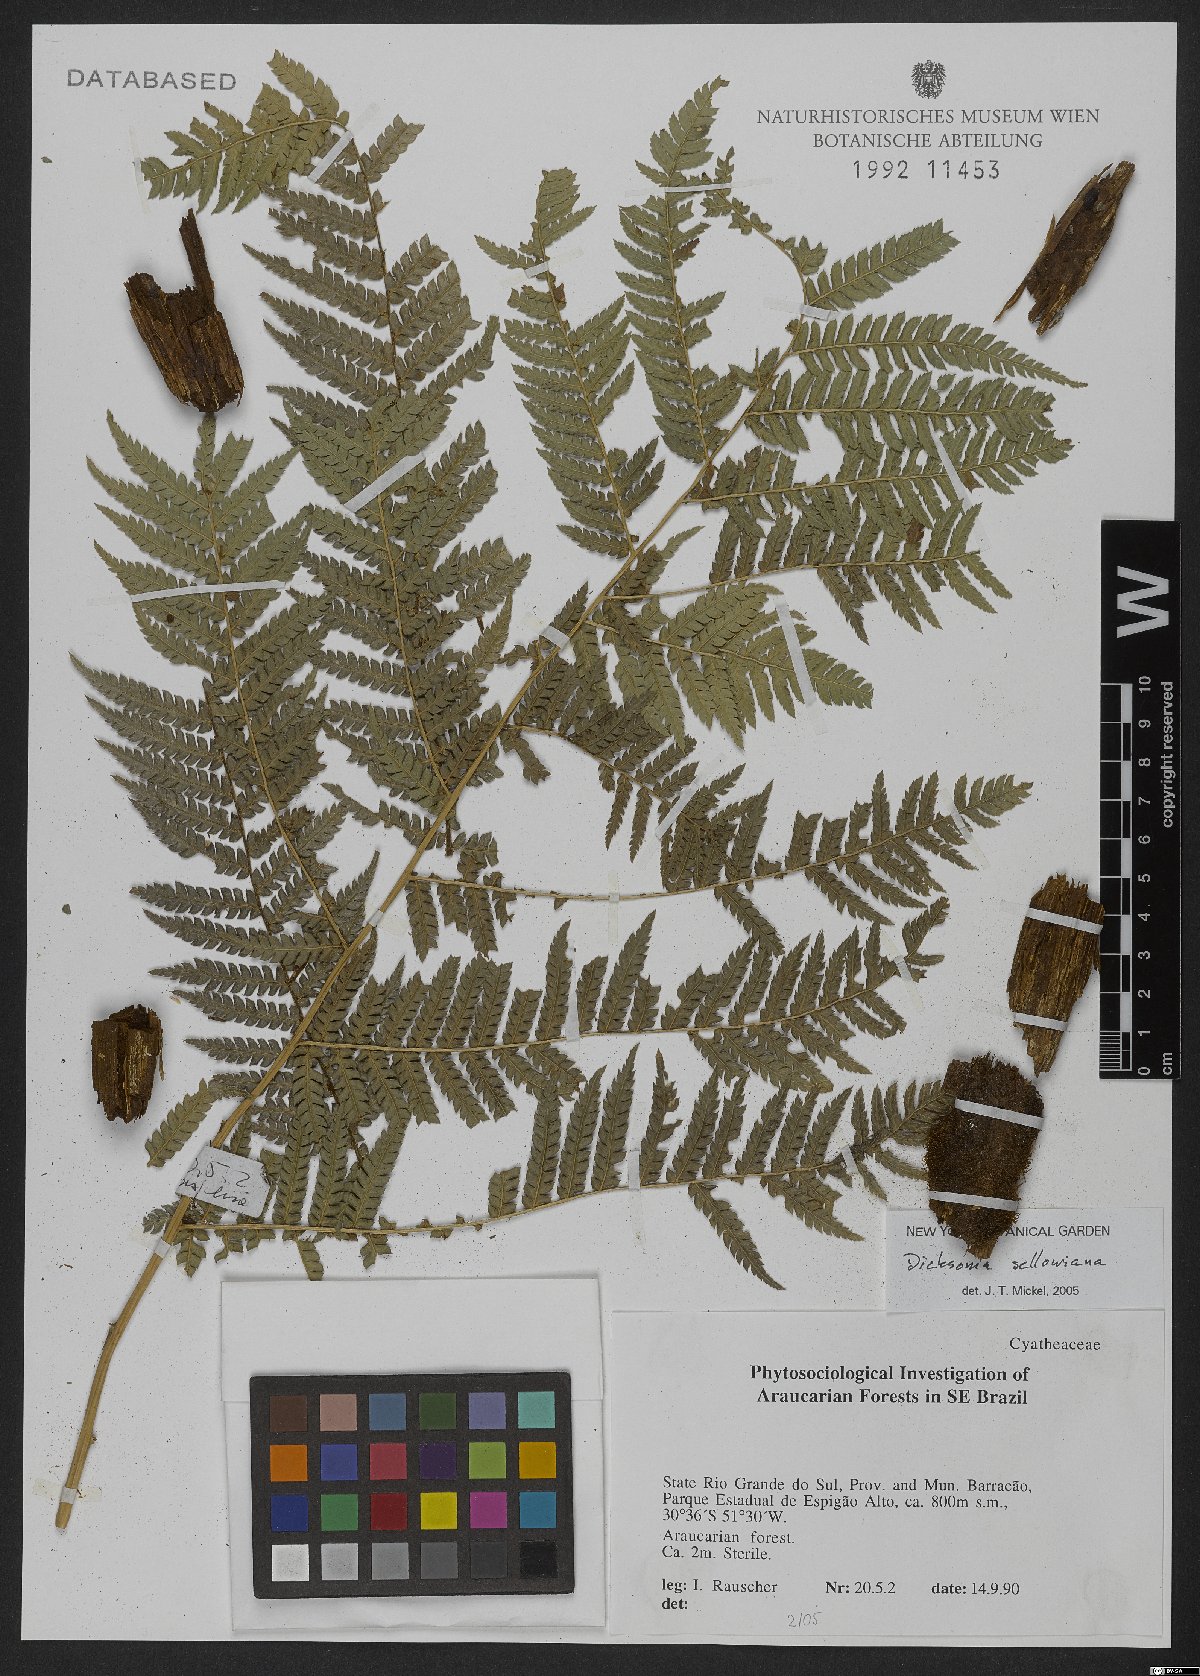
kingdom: Plantae
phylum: Tracheophyta
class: Polypodiopsida
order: Cyatheales
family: Dicksoniaceae
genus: Dicksonia
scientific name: Dicksonia sellowiana
